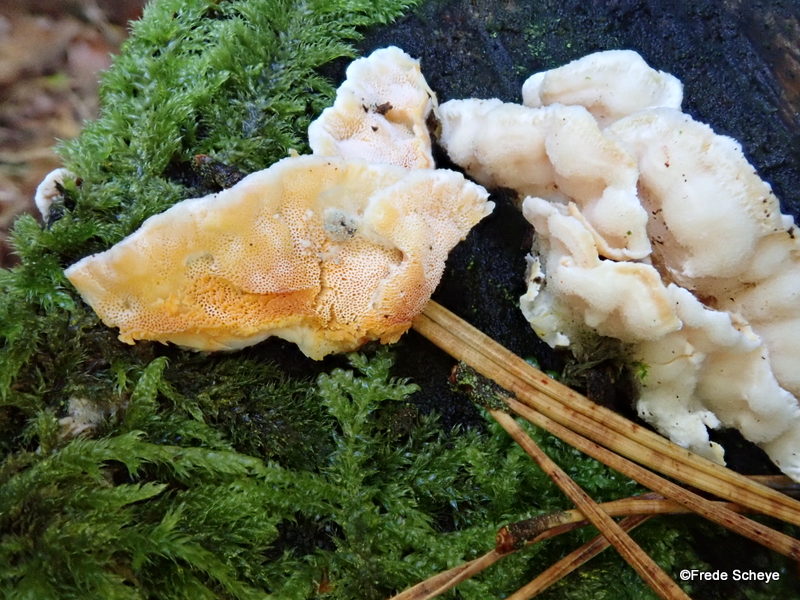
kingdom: Fungi
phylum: Basidiomycota
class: Agaricomycetes
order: Polyporales
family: Incrustoporiaceae
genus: Skeletocutis
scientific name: Skeletocutis amorpha
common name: orange krystalporesvamp
